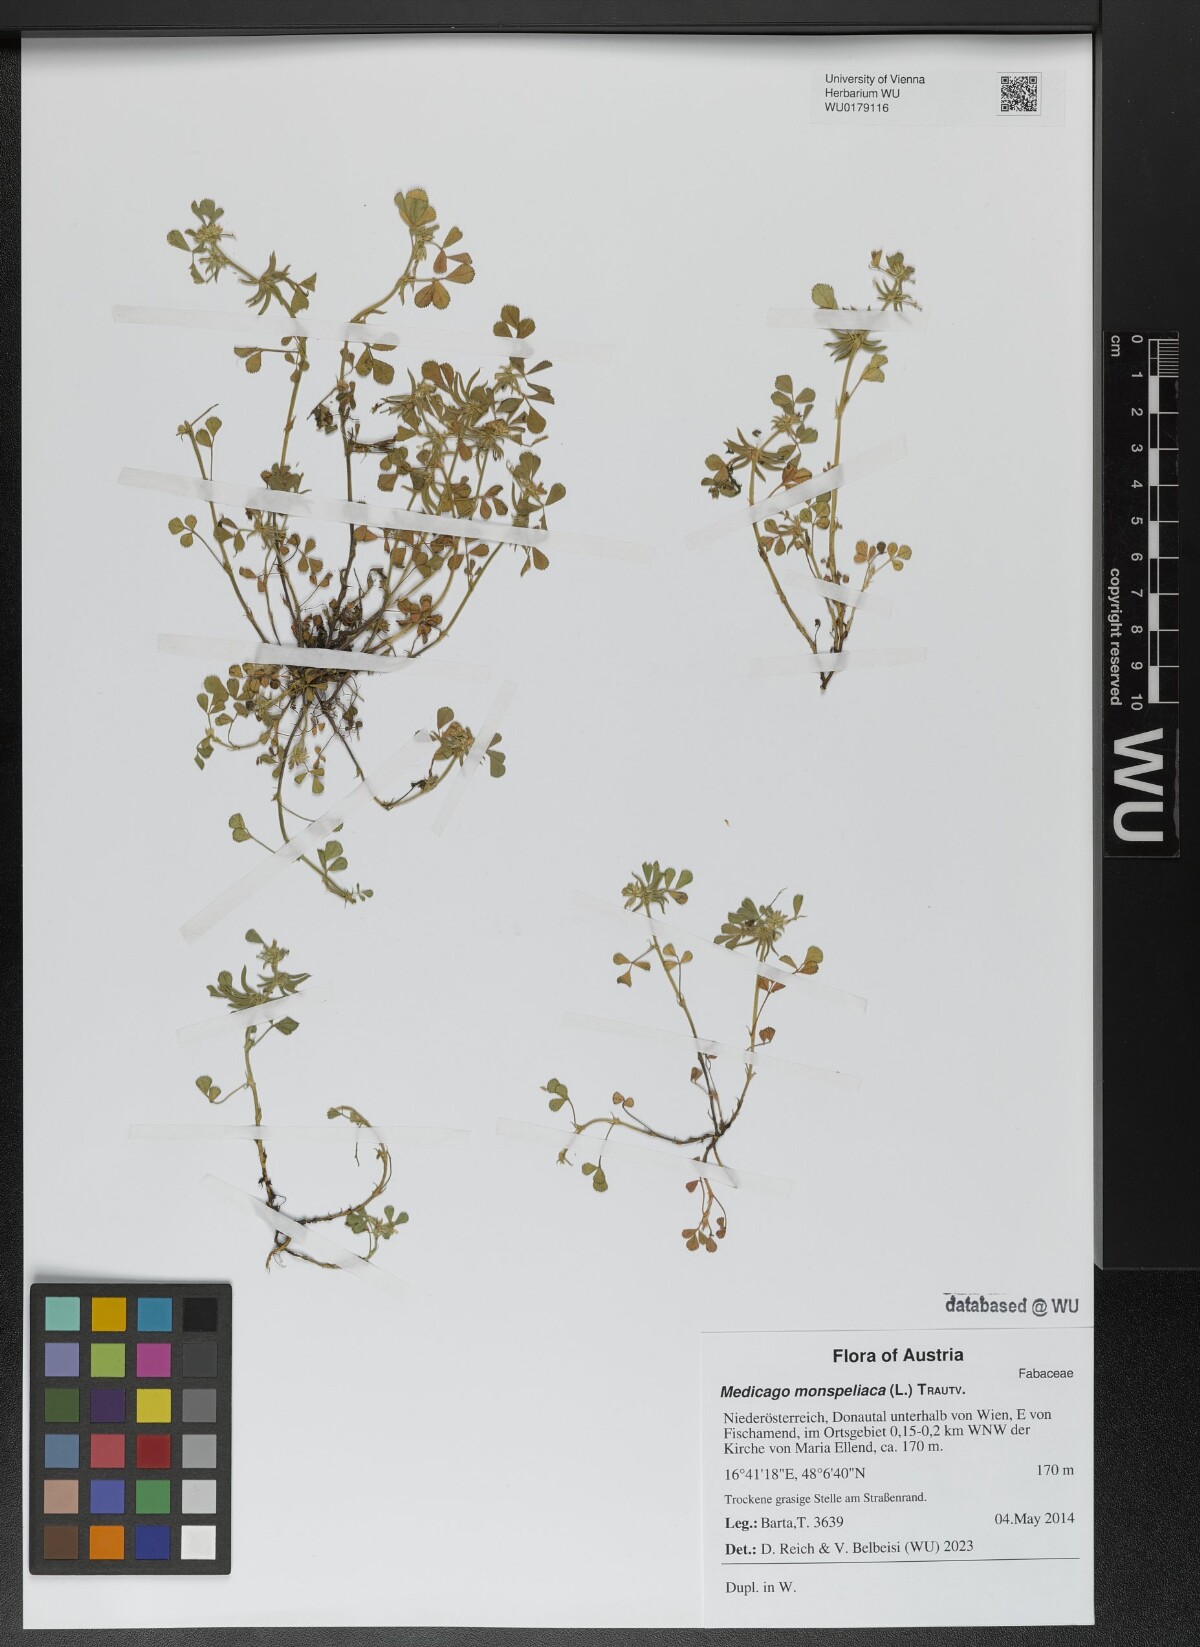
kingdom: Plantae
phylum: Tracheophyta
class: Magnoliopsida
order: Fabales
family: Fabaceae
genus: Medicago
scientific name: Medicago monspeliaca
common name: Hairy medick
